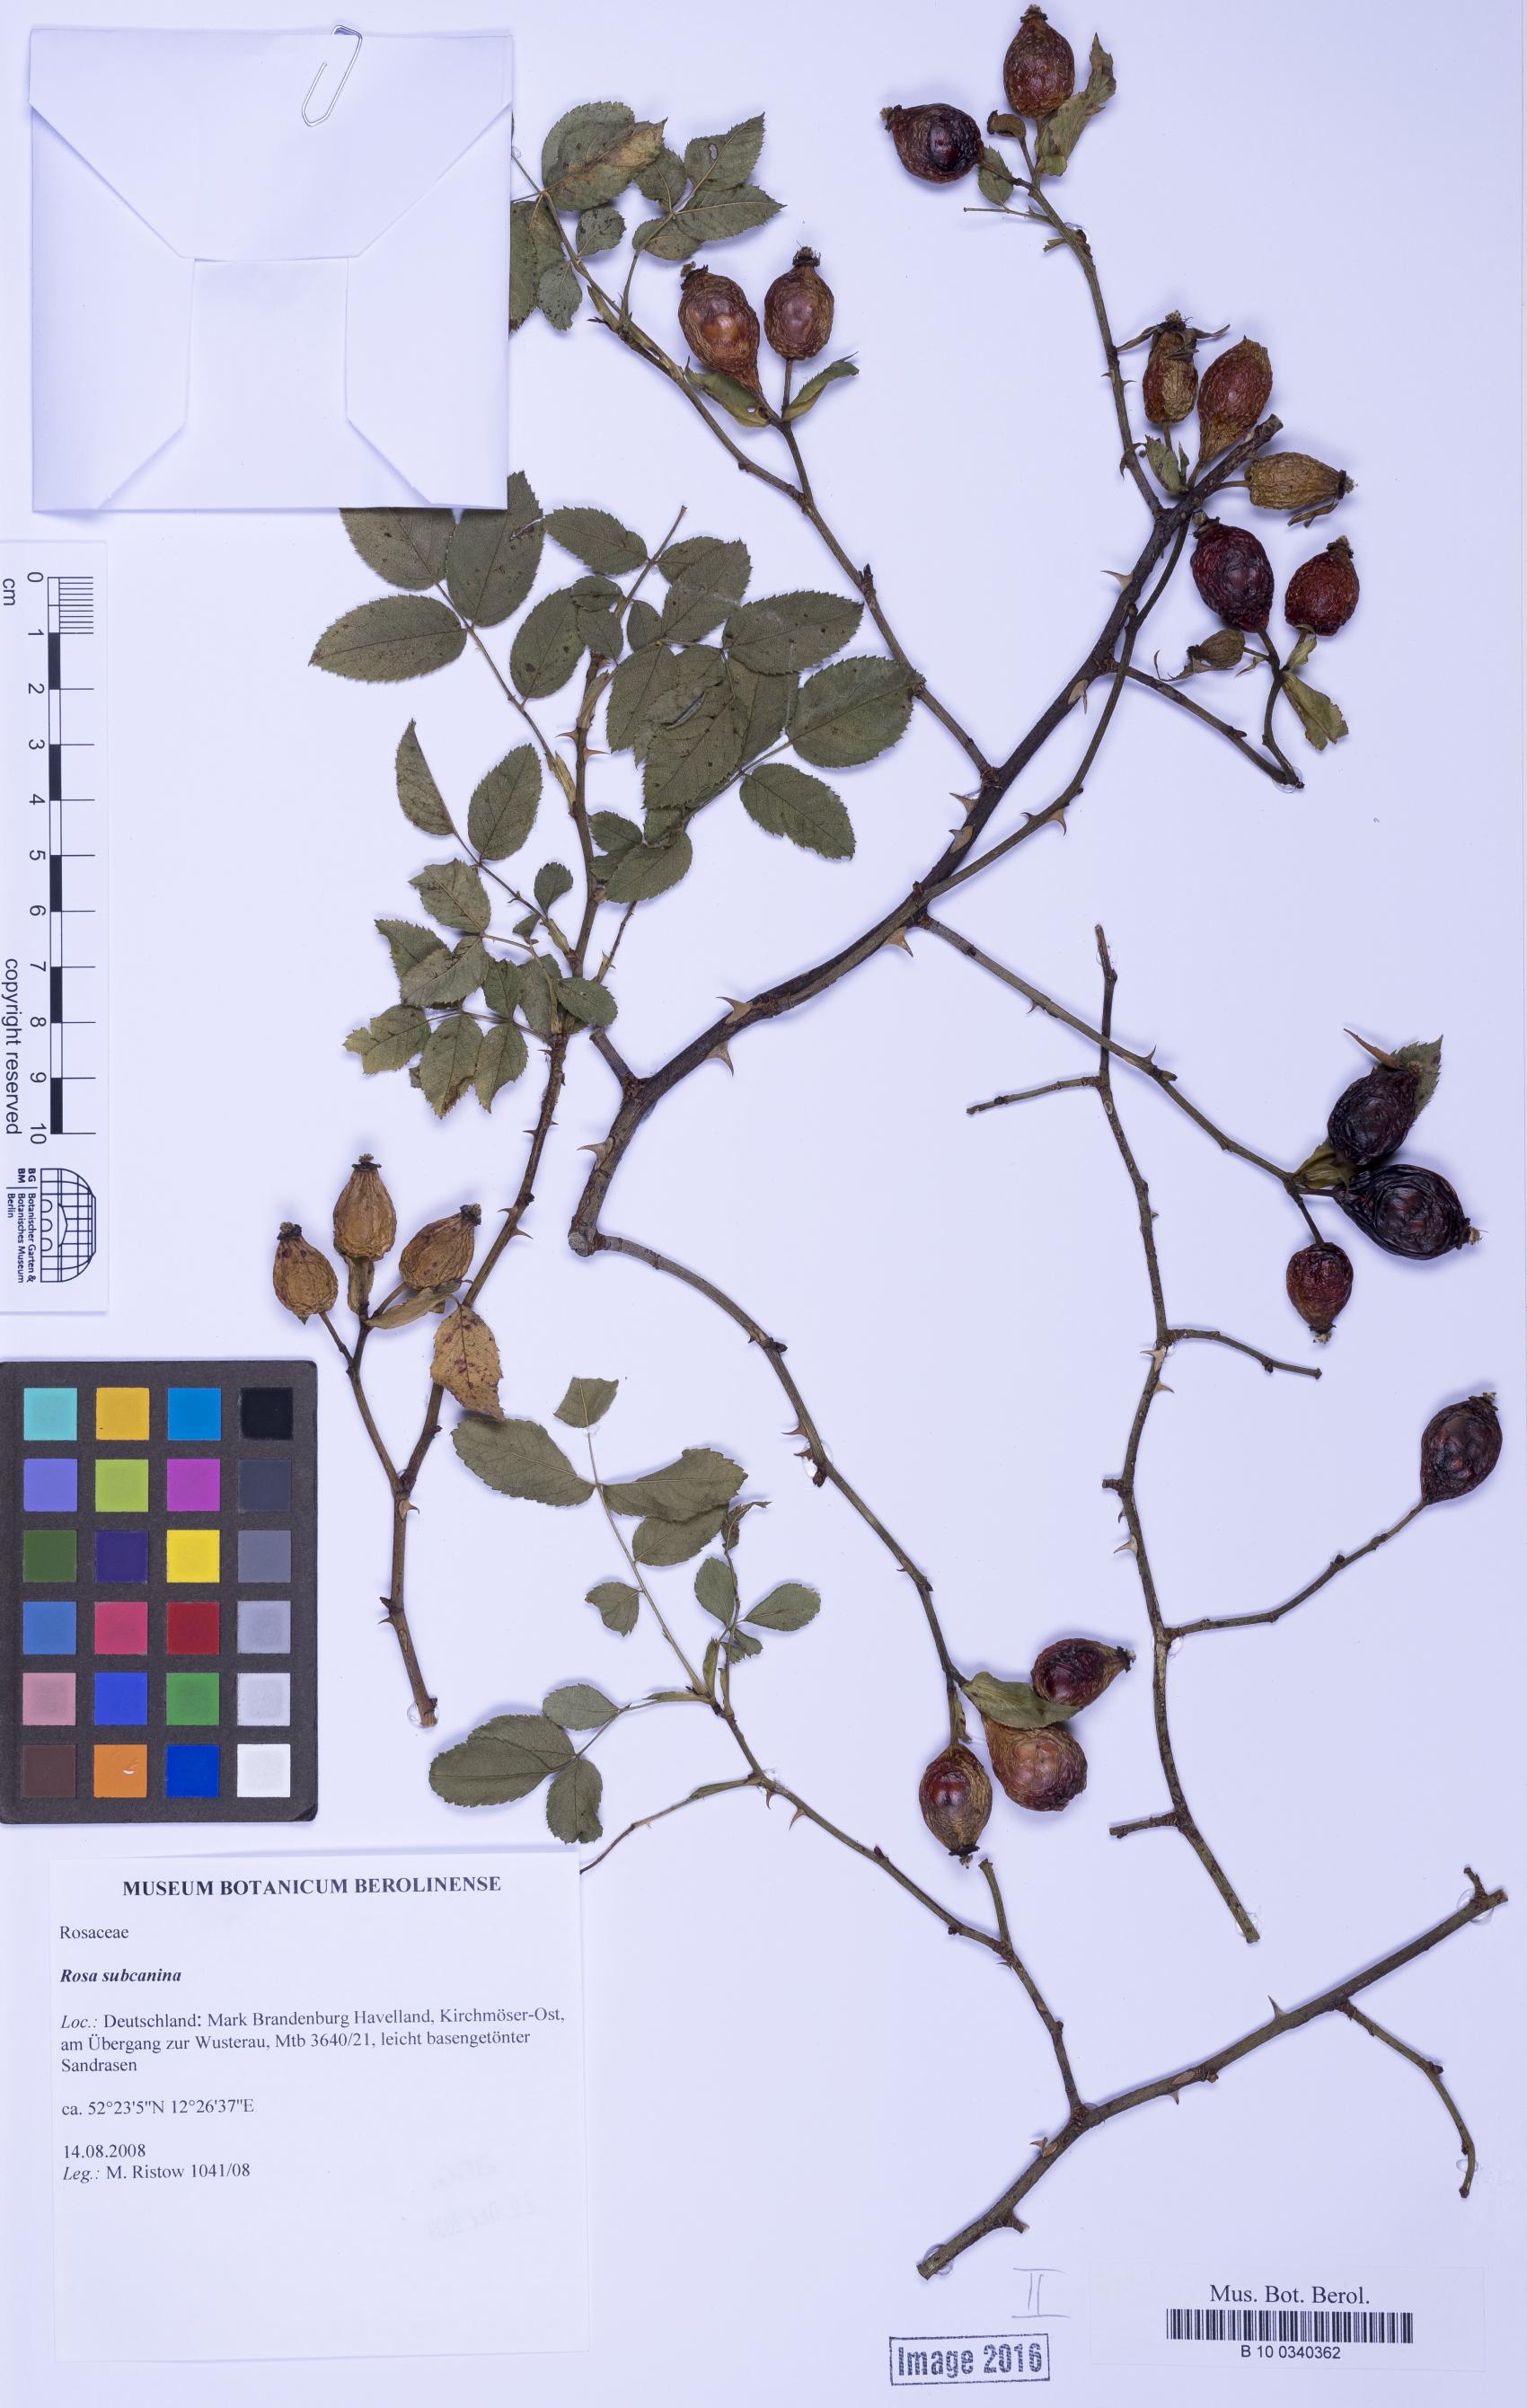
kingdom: Plantae
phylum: Tracheophyta
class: Magnoliopsida
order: Rosales
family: Rosaceae
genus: Rosa
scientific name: Rosa subcanina
